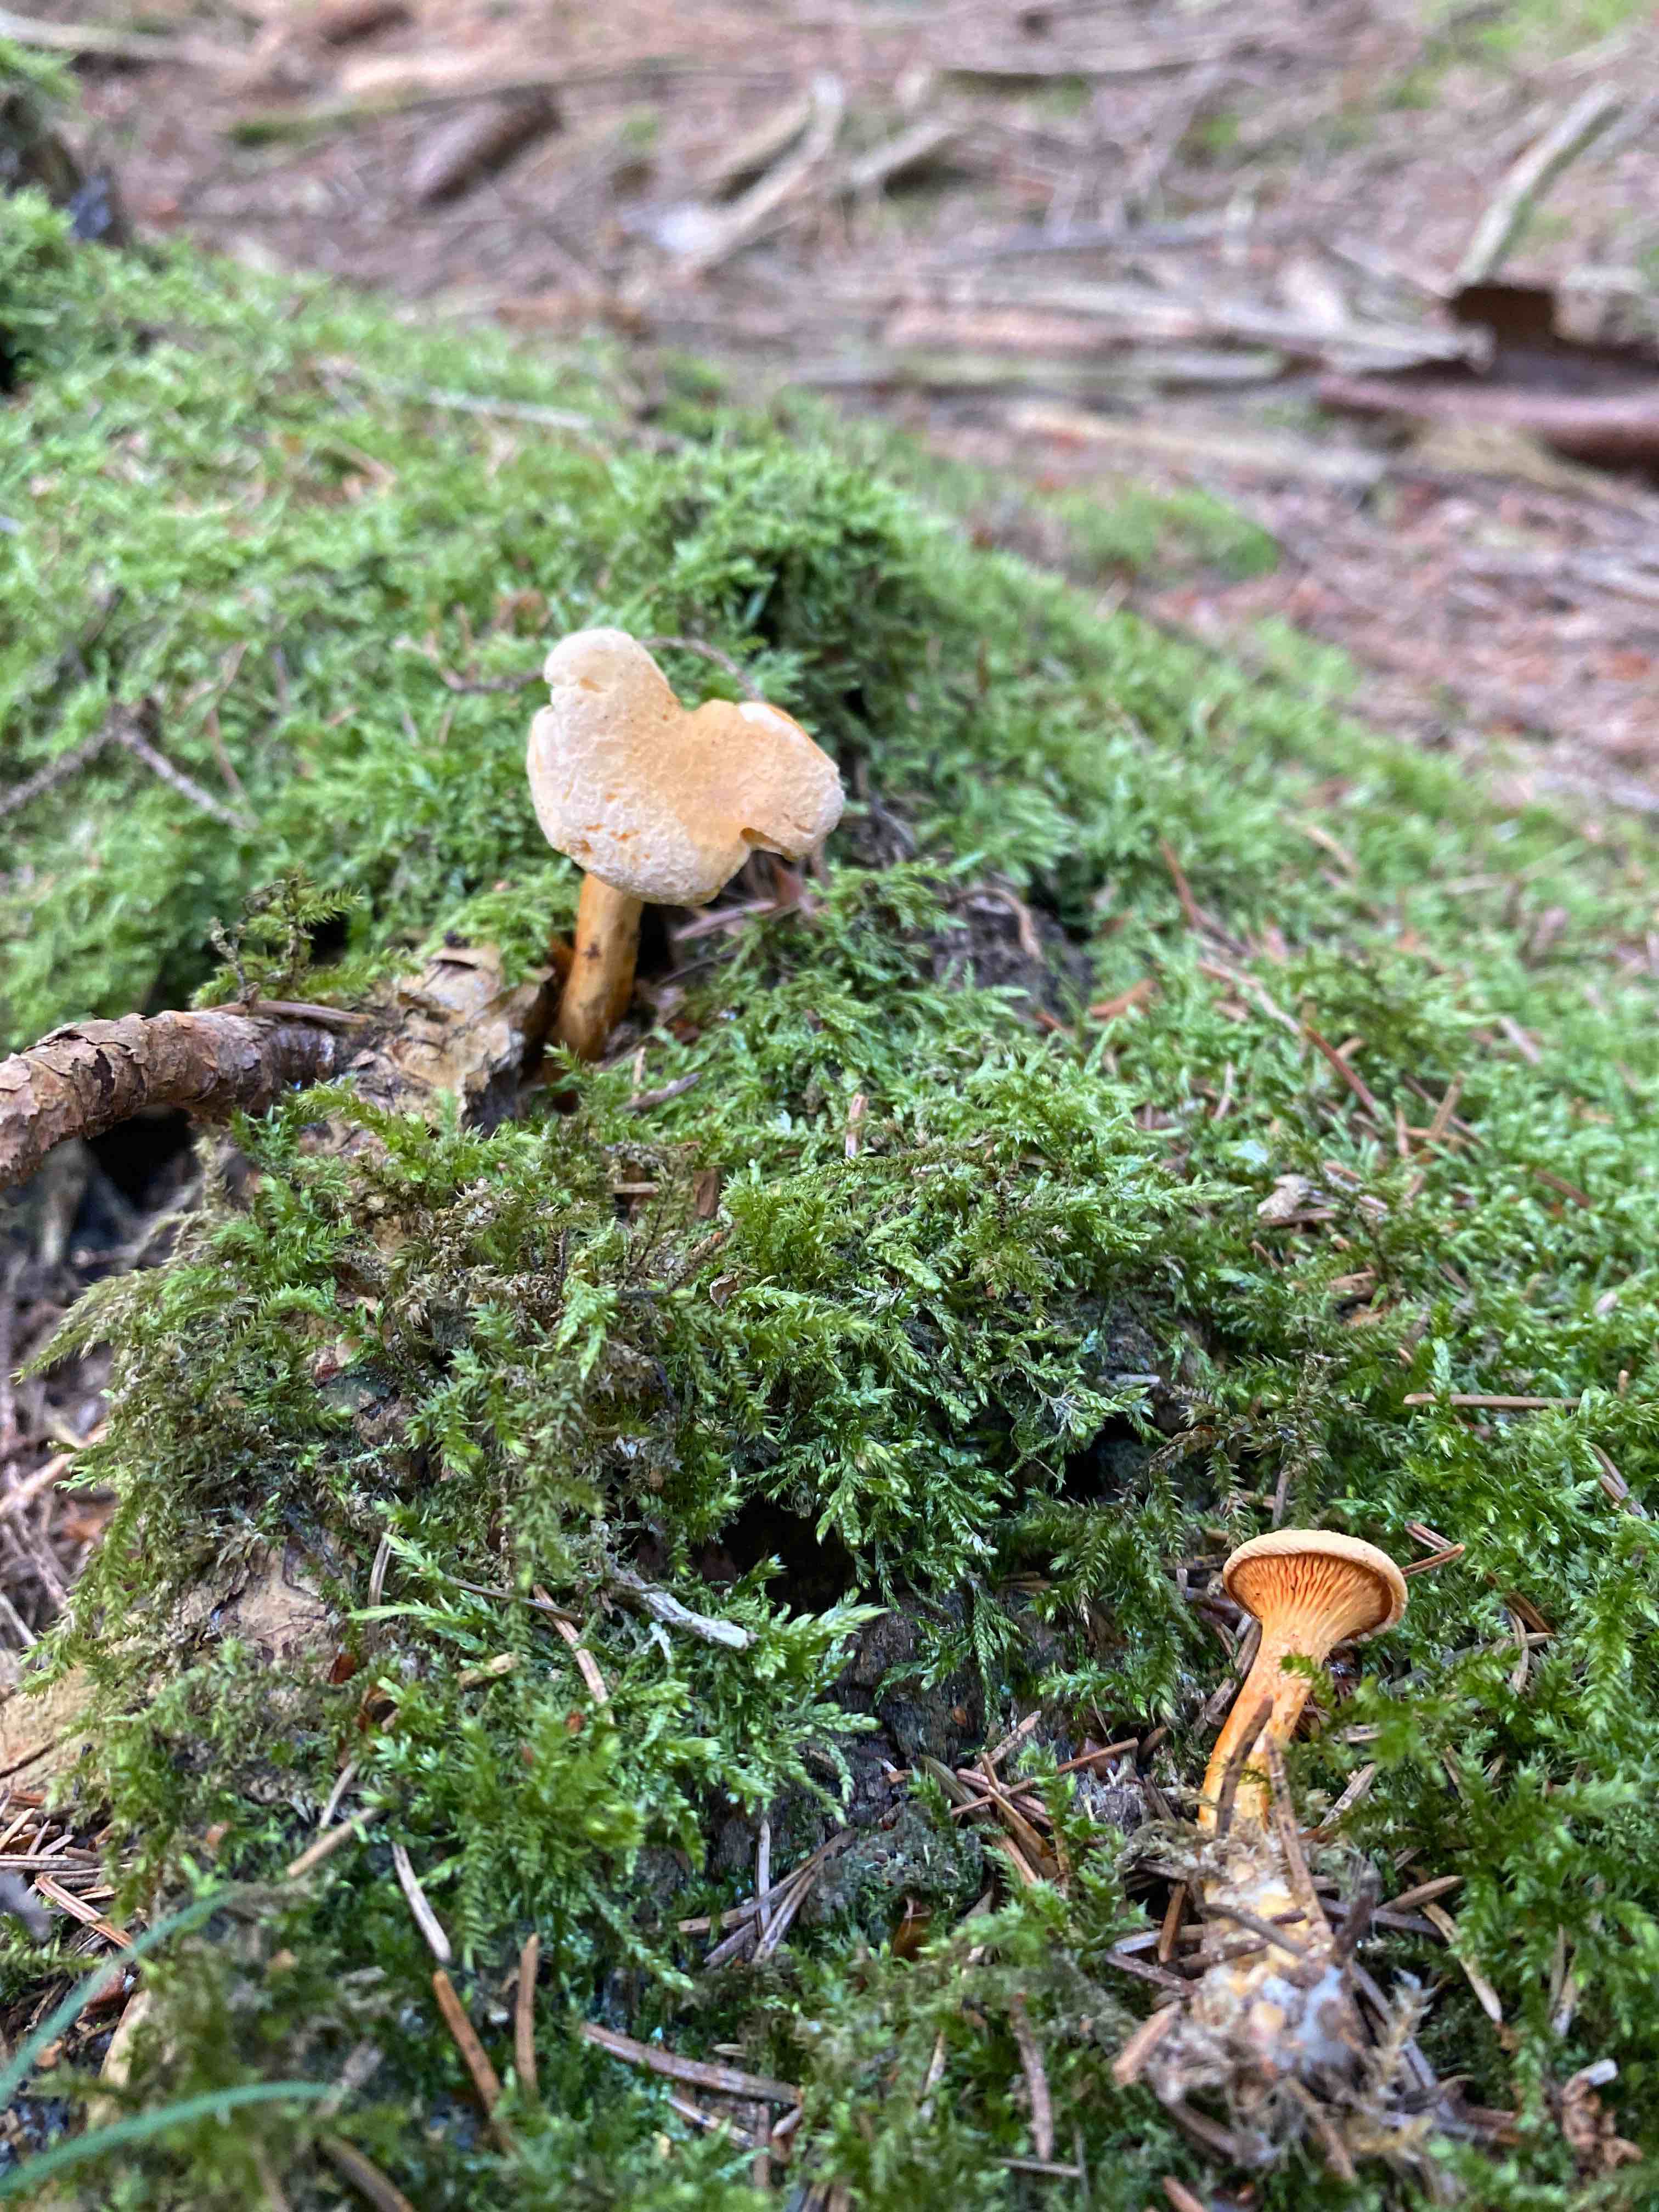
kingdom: Fungi
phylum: Basidiomycota
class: Agaricomycetes
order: Boletales
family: Hygrophoropsidaceae
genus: Hygrophoropsis
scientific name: Hygrophoropsis aurantiaca
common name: almindelig orangekantarel
